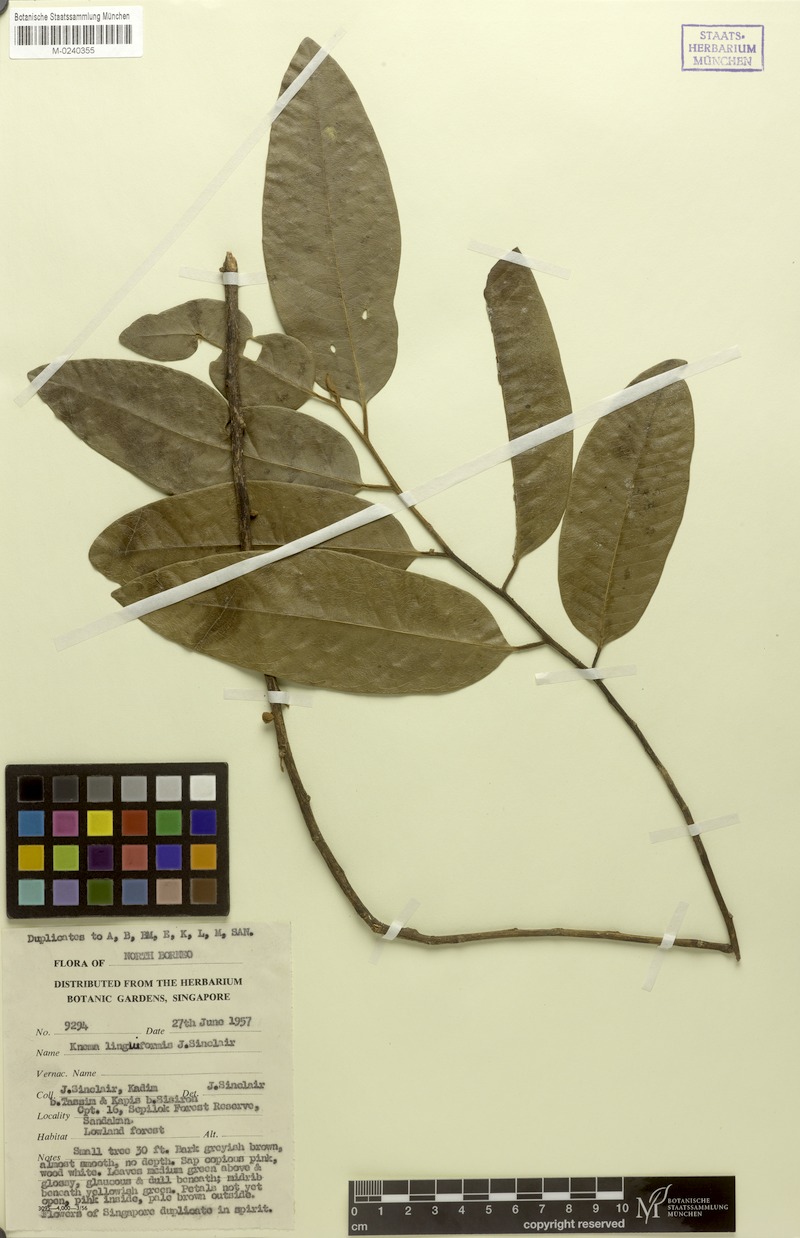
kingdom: Plantae
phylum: Tracheophyta
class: Magnoliopsida
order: Magnoliales
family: Myristicaceae
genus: Knema
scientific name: Knema linguiformis
